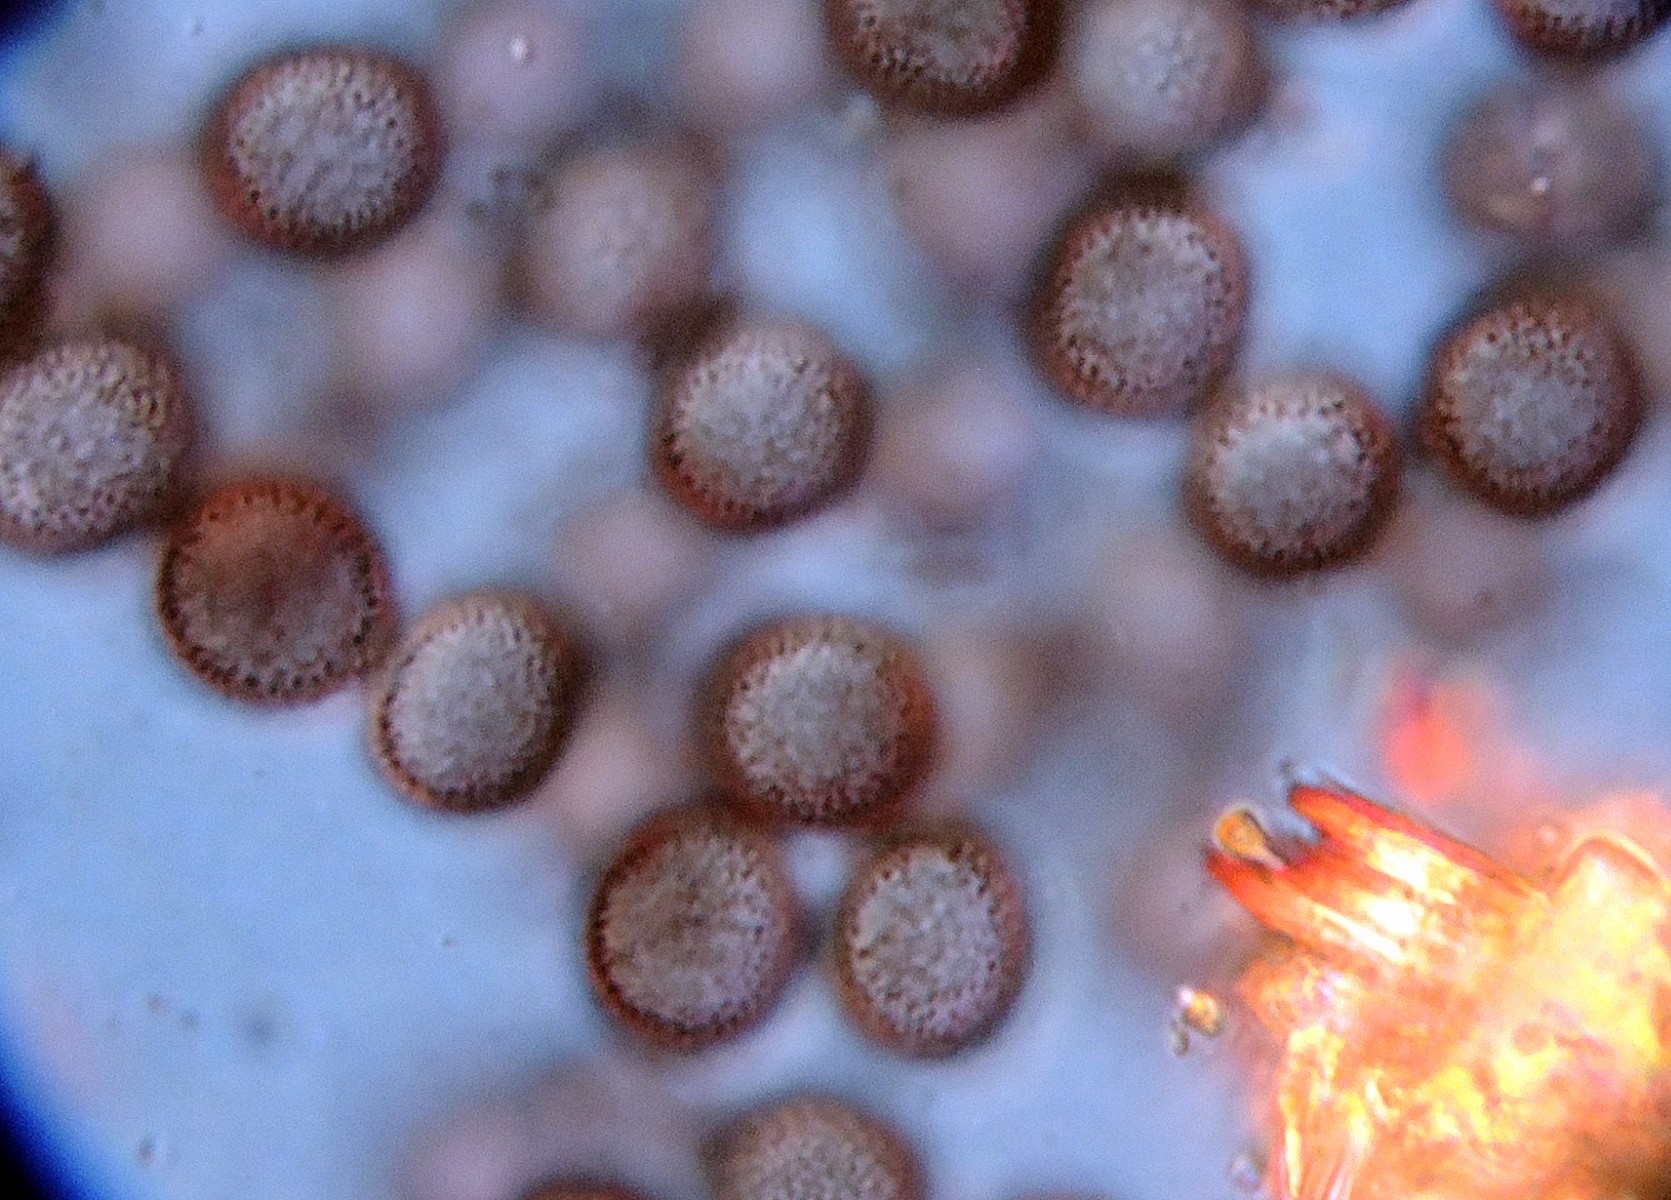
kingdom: Protozoa
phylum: Mycetozoa
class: Myxomycetes
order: Physarales
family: Didymiaceae
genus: Didymium
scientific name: Didymium squamulosum
